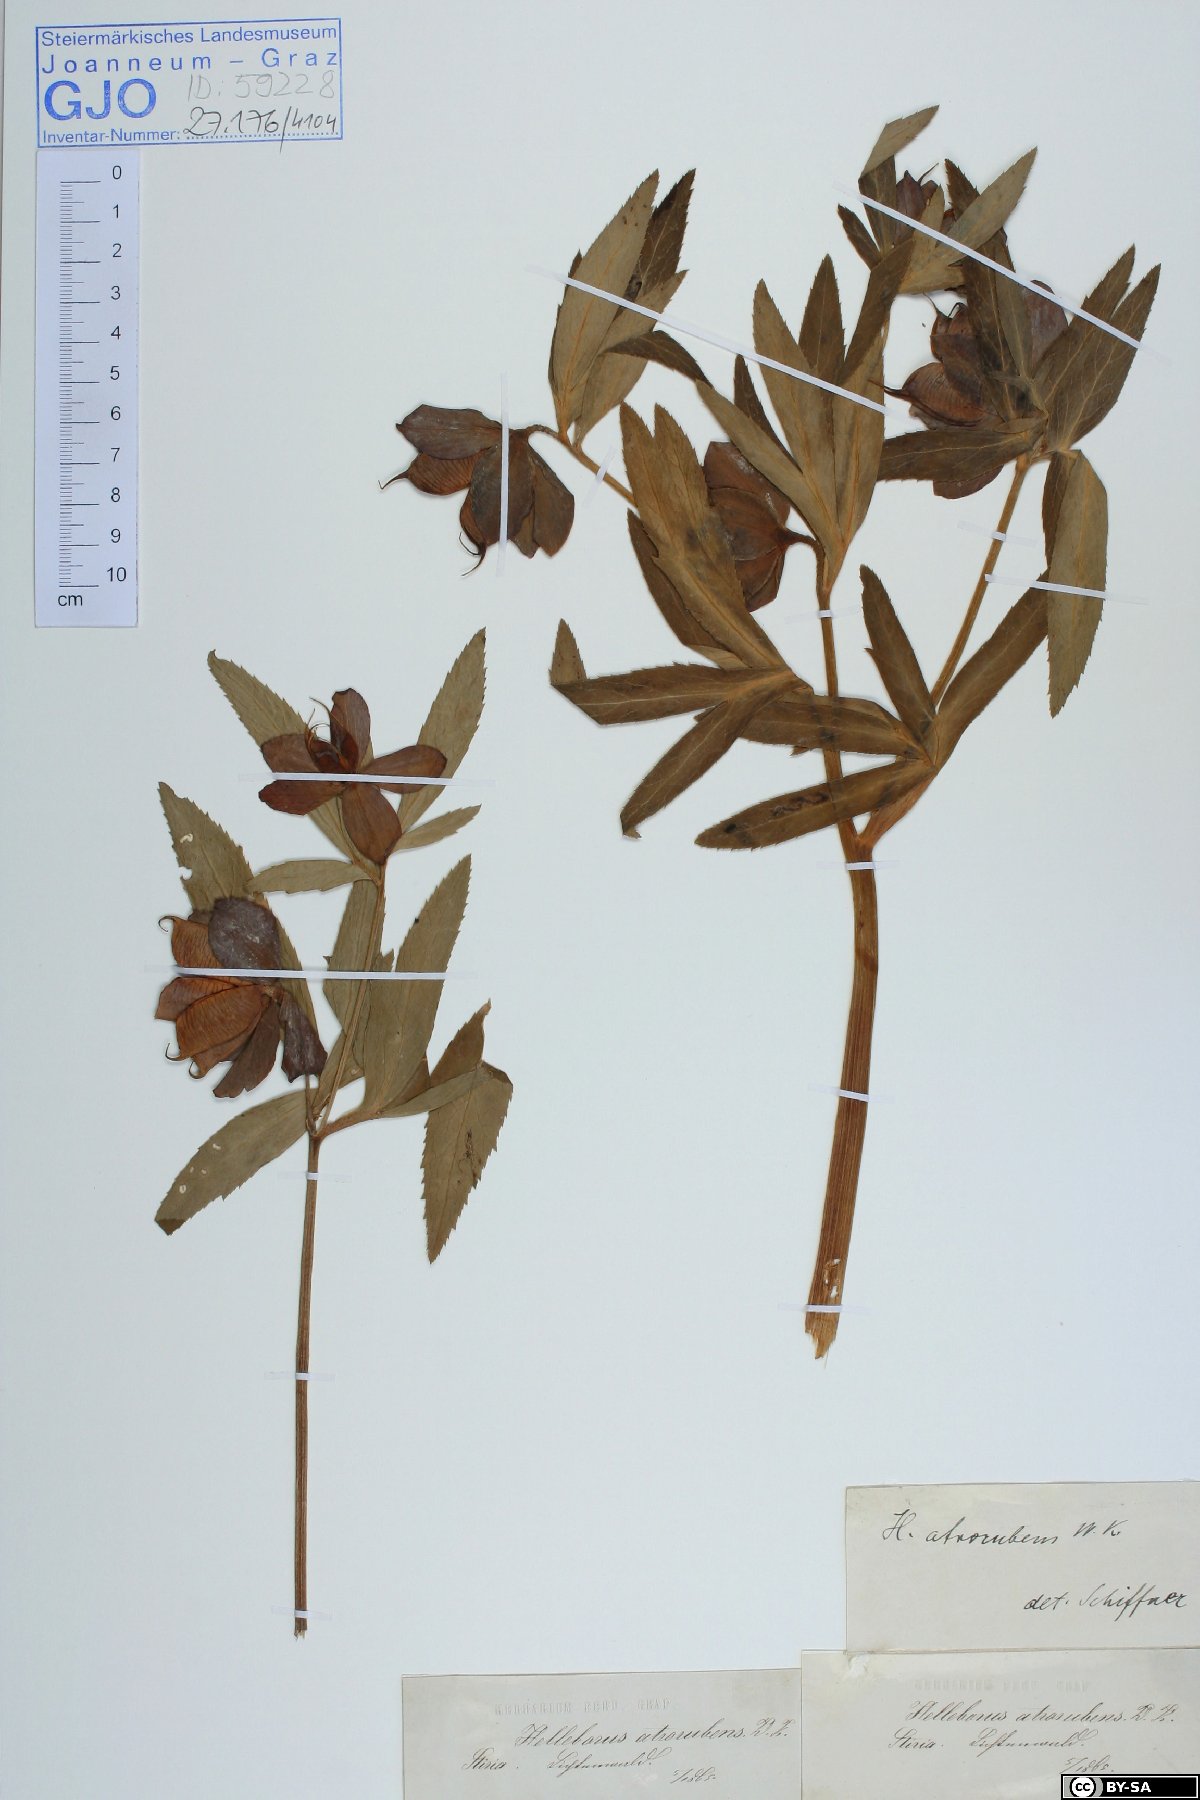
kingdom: Plantae
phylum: Tracheophyta
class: Magnoliopsida
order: Ranunculales
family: Ranunculaceae
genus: Helleborus
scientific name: Helleborus dumetorum
